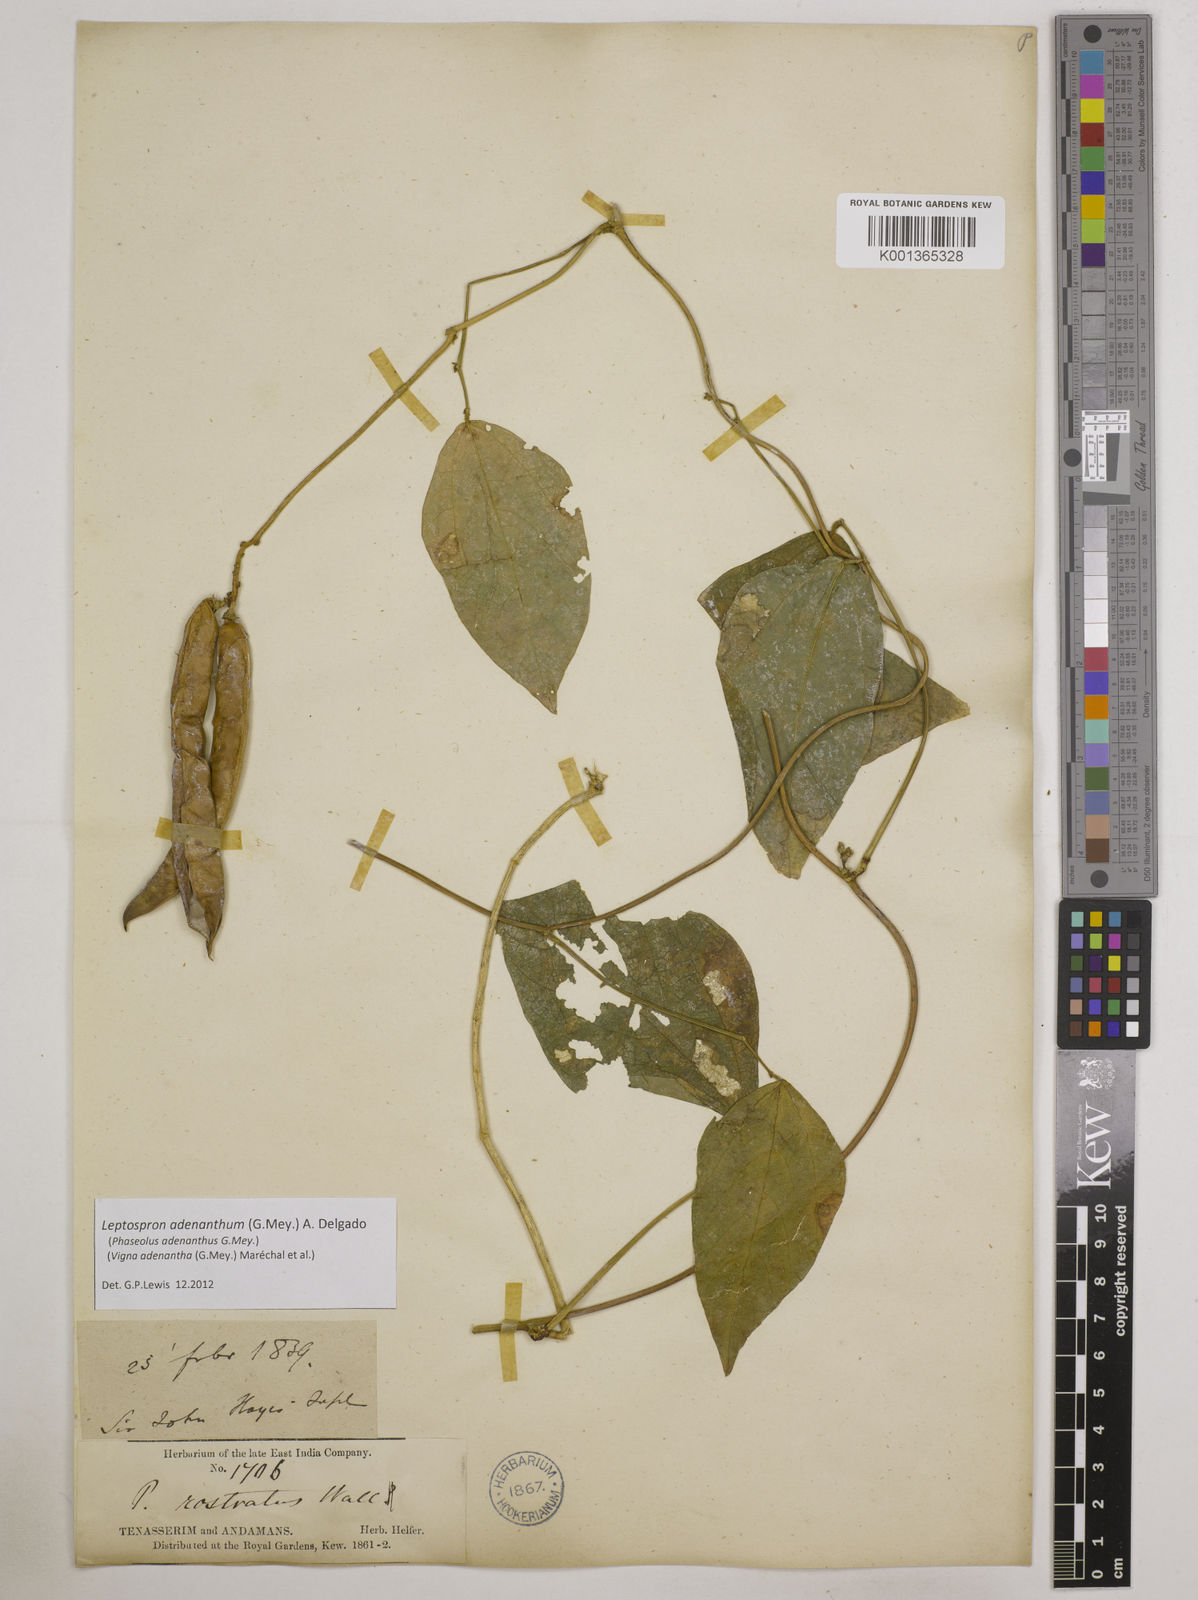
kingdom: Plantae
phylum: Tracheophyta
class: Magnoliopsida
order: Fabales
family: Fabaceae
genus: Leptospron
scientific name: Leptospron adenanthum
